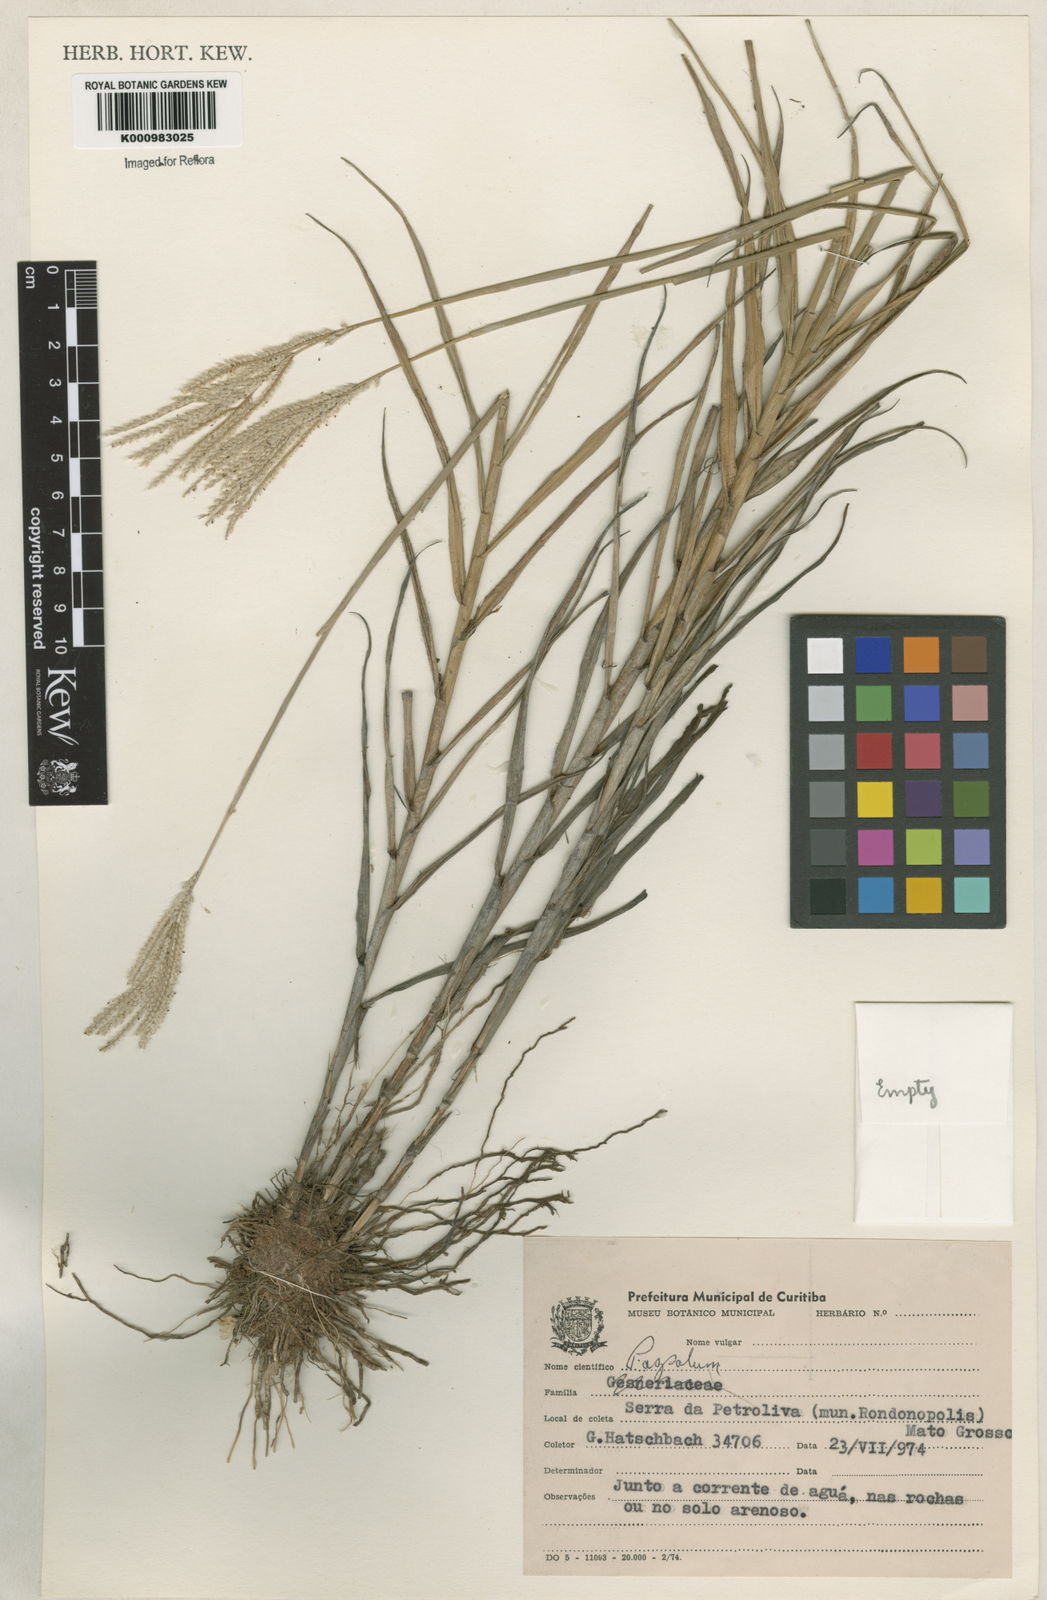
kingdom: Plantae
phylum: Tracheophyta
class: Liliopsida
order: Poales
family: Poaceae
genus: Paspalum
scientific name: Paspalum polyphyllum
